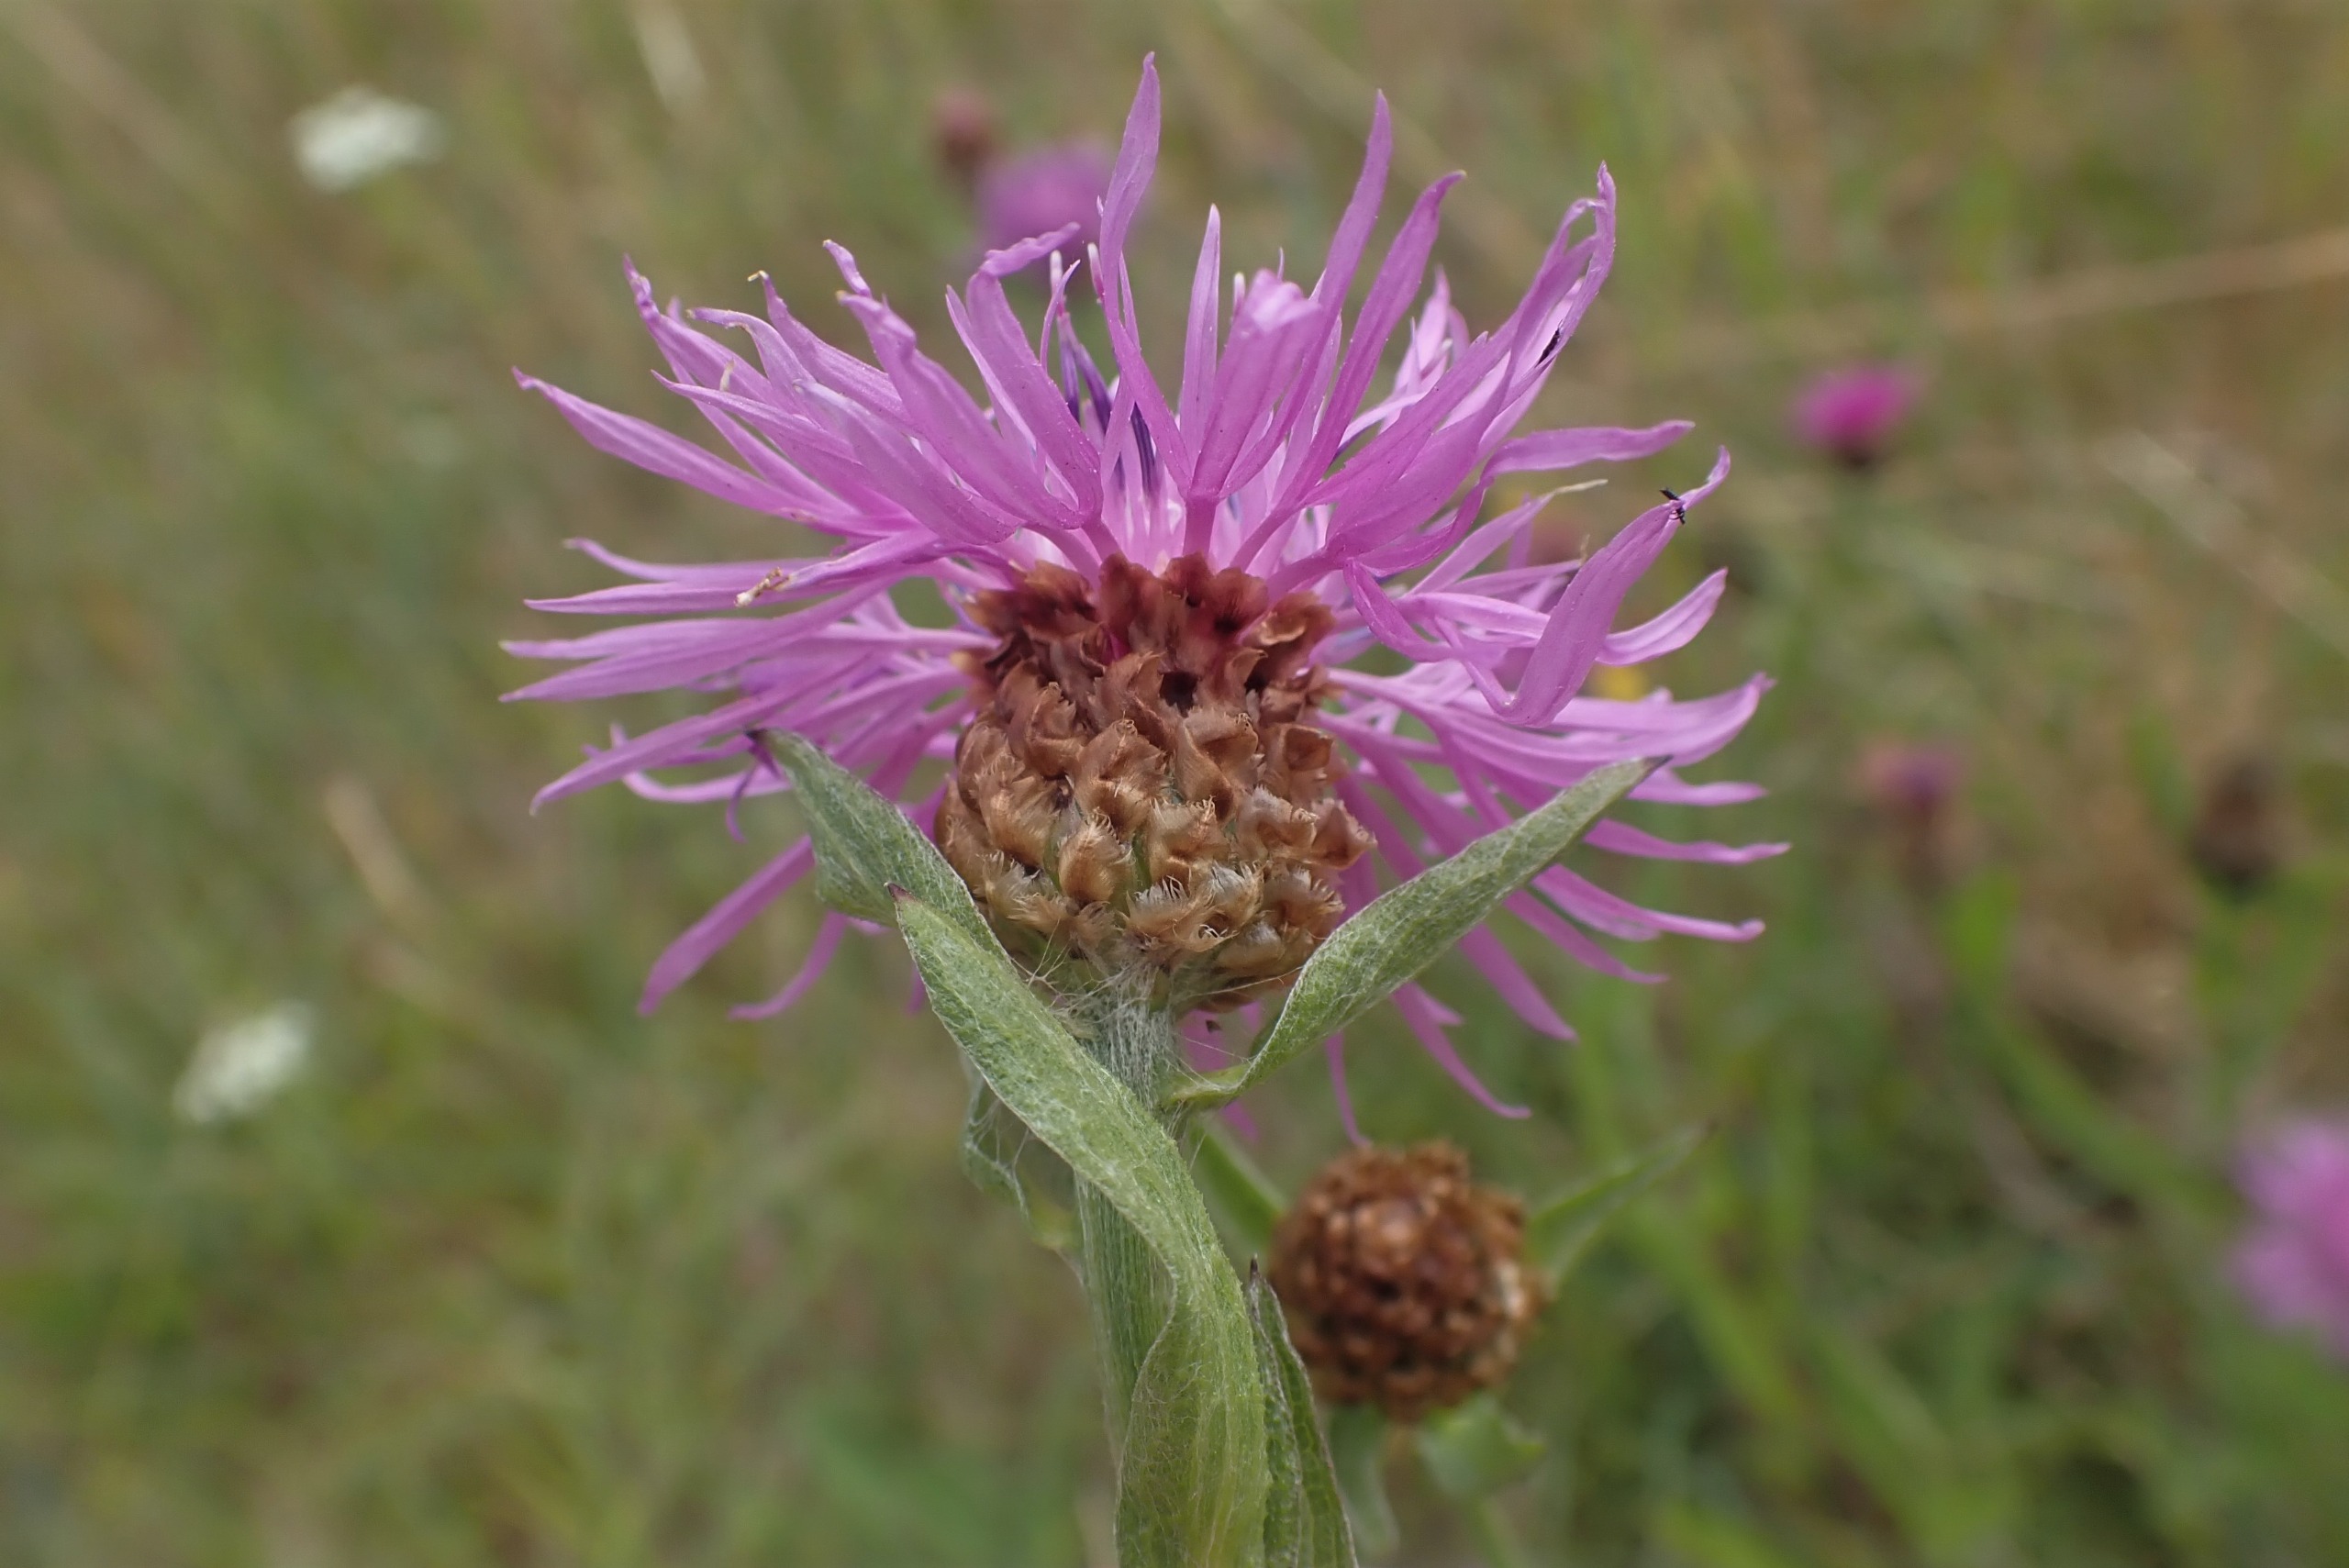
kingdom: Plantae
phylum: Tracheophyta
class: Magnoliopsida
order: Asterales
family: Asteraceae
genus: Centaurea
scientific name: Centaurea jacea
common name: Almindelig knopurt
